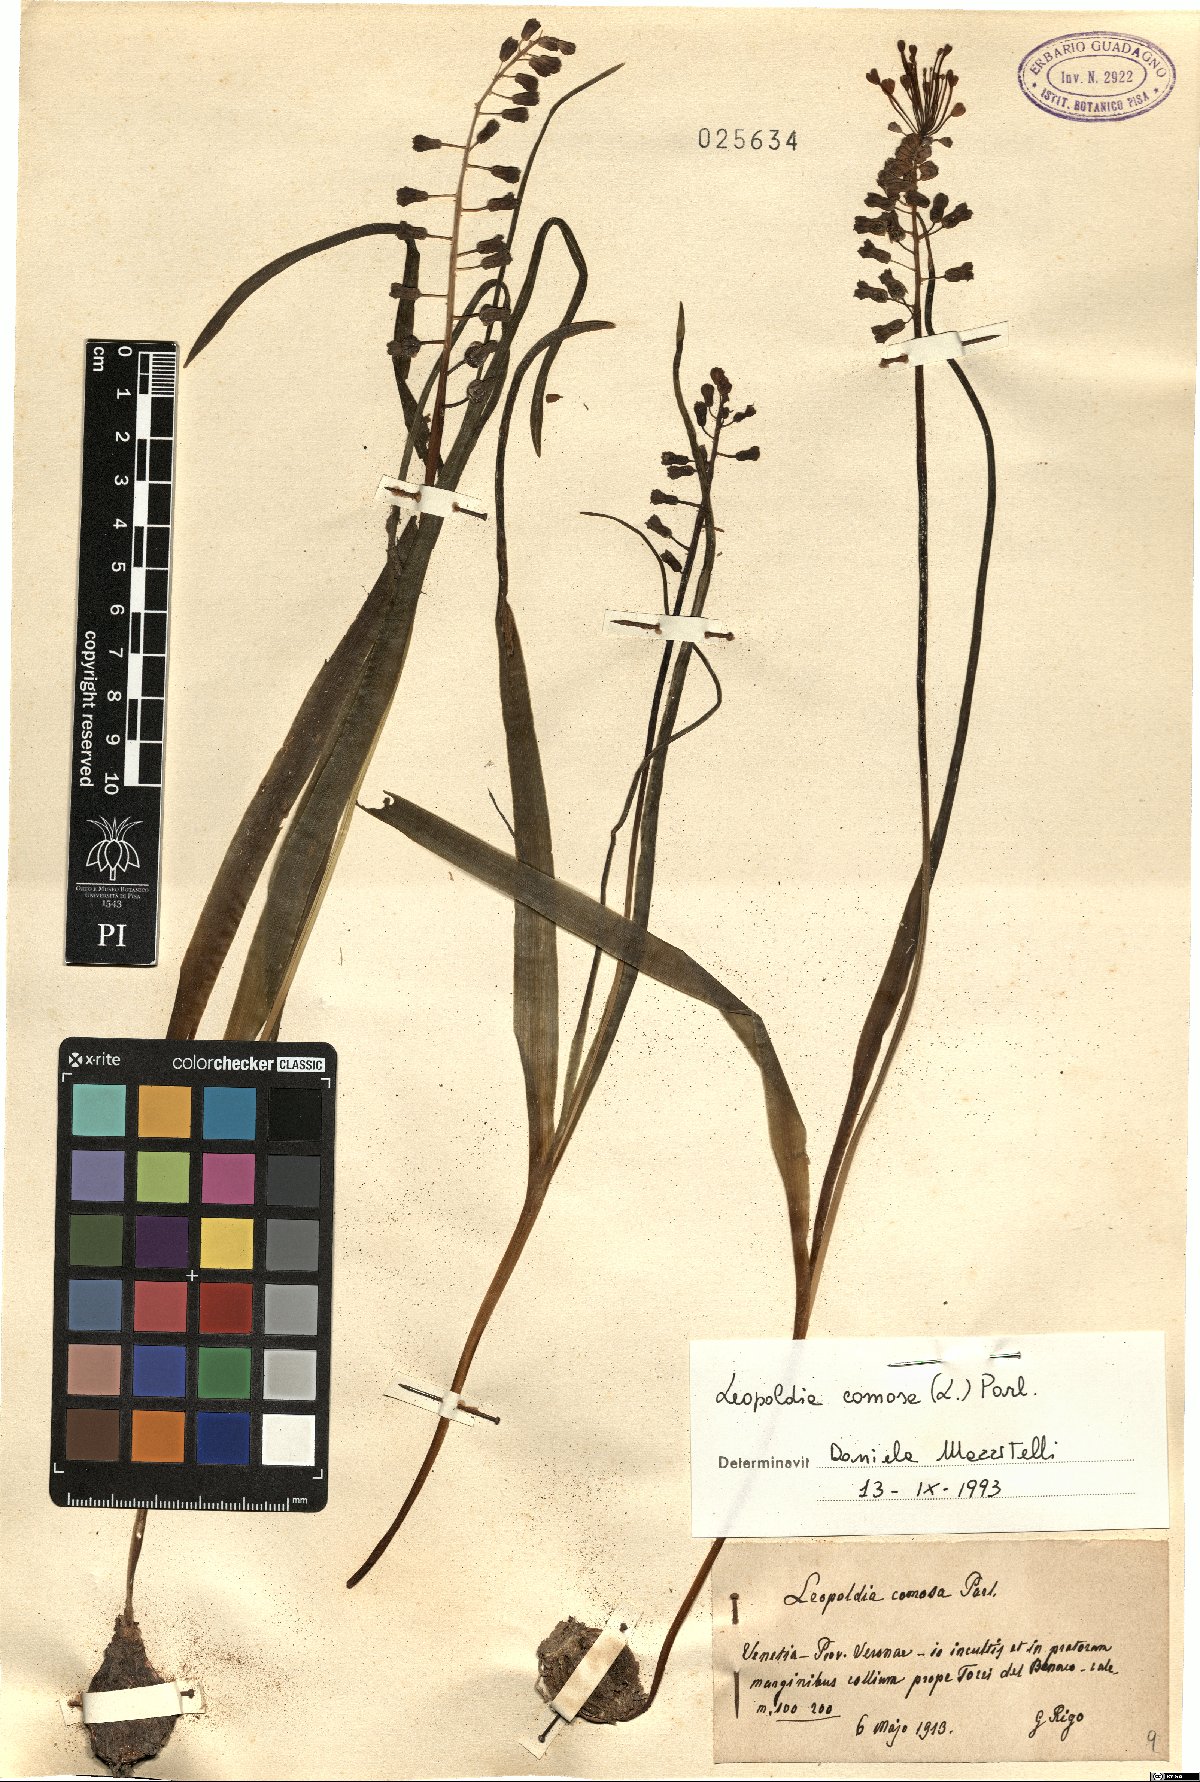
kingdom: Plantae
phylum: Tracheophyta
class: Liliopsida
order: Asparagales
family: Asparagaceae
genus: Muscari
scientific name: Muscari comosum
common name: Tassel hyacinth
